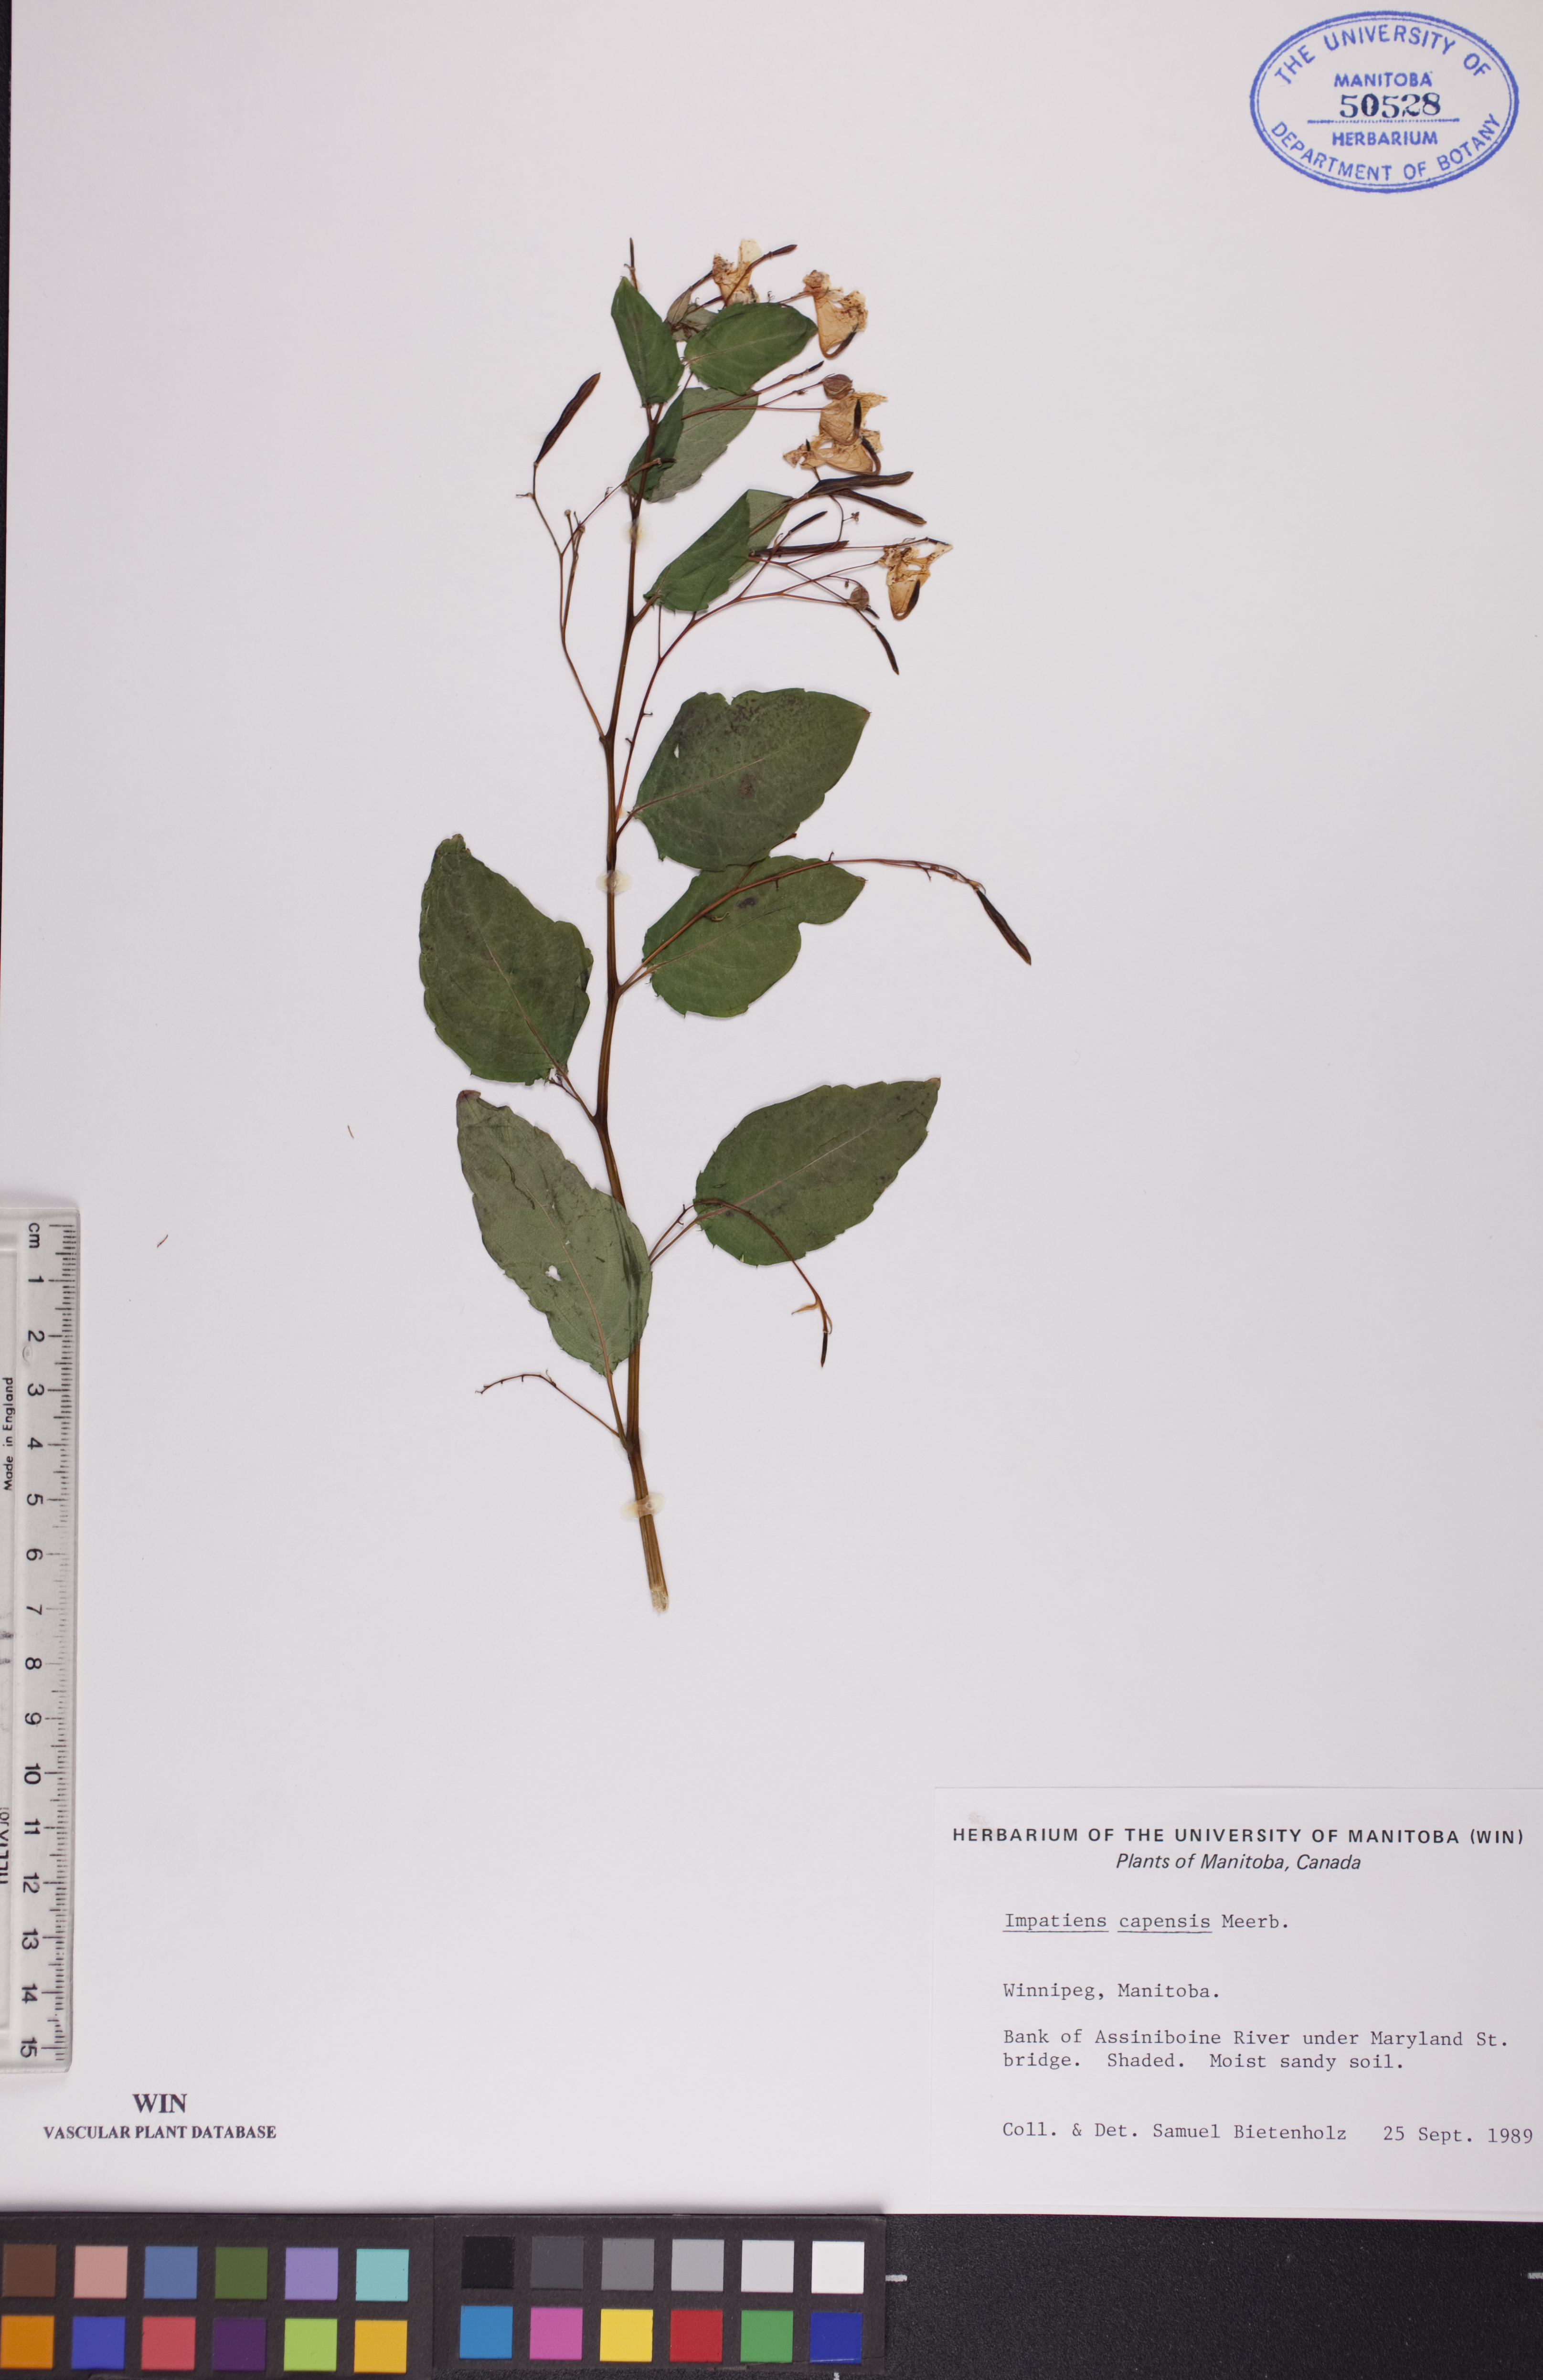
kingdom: Plantae
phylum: Tracheophyta
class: Magnoliopsida
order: Ericales
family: Balsaminaceae
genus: Impatiens
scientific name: Impatiens capensis
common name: Orange balsam
